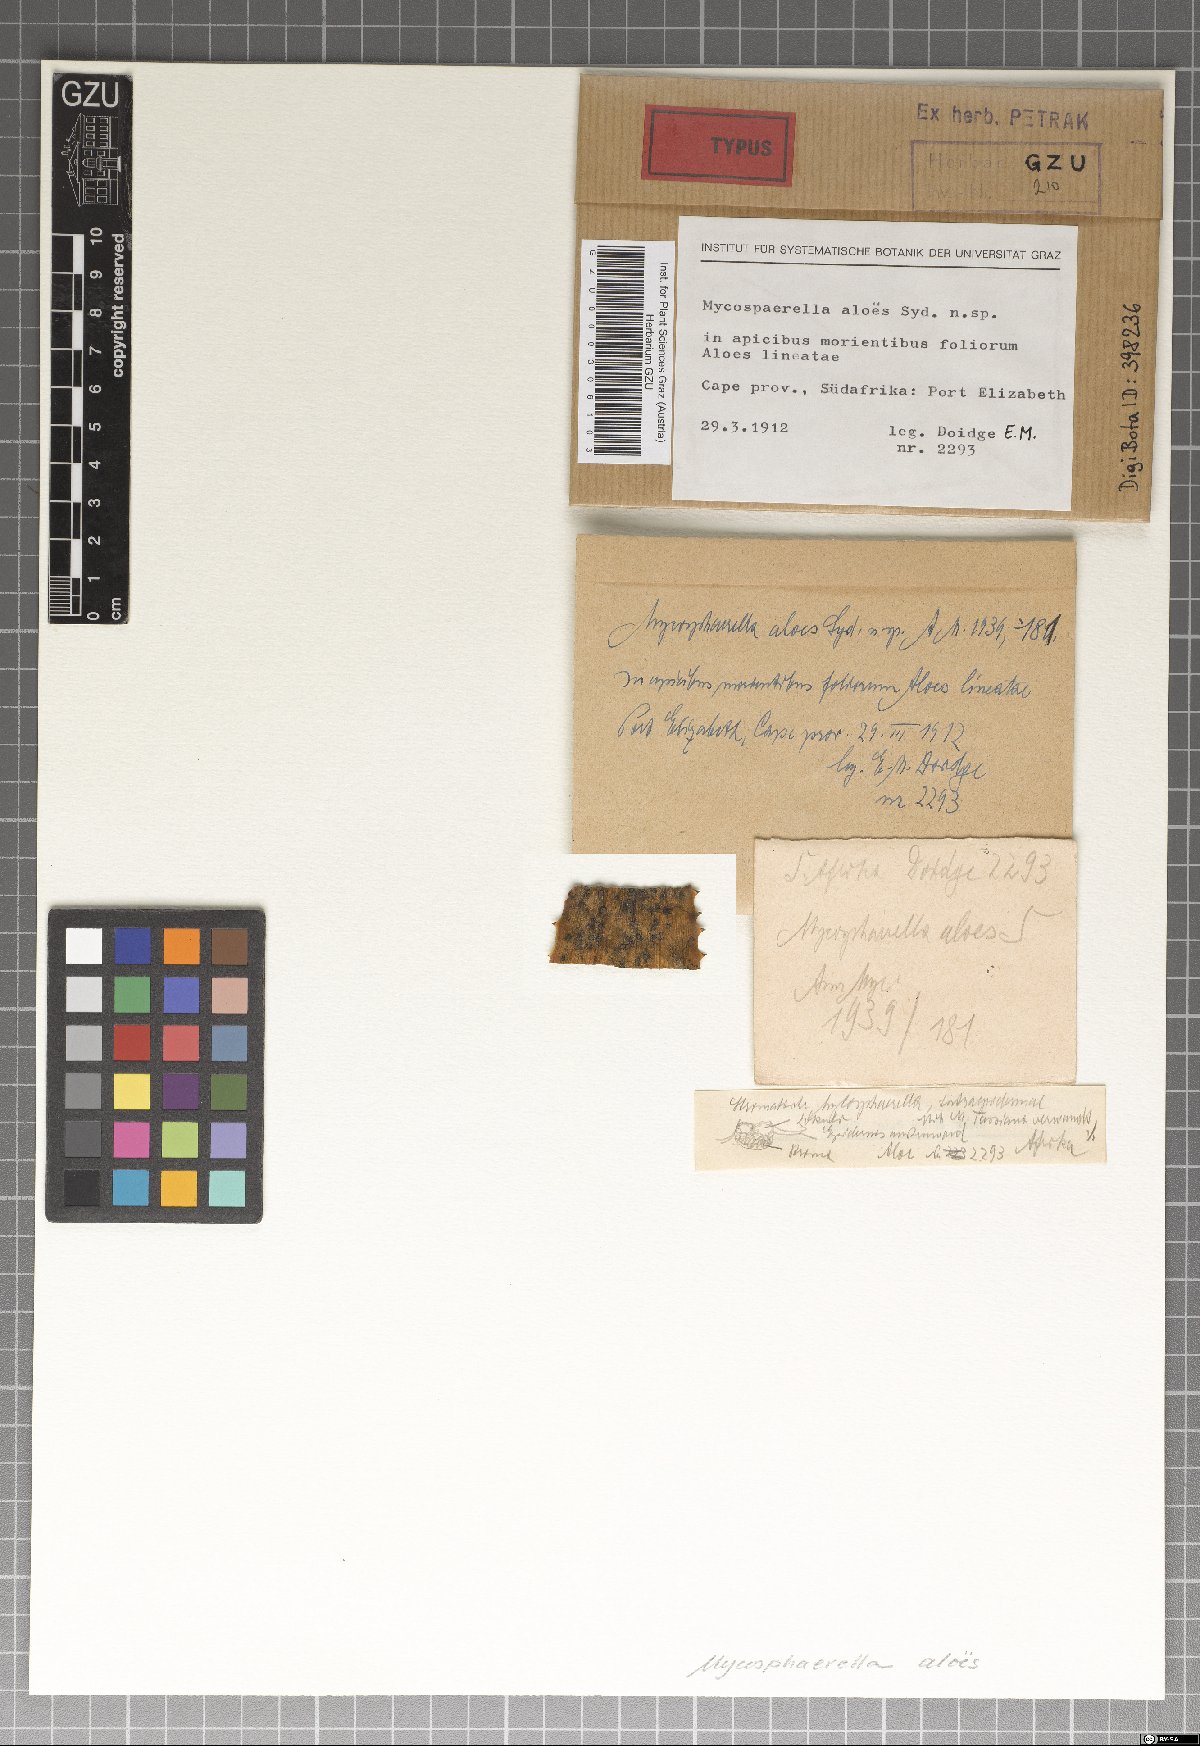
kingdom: Fungi
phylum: Ascomycota
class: Dothideomycetes
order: Mycosphaerellales
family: Mycosphaerellaceae
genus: Mycosphaerella
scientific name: Mycosphaerella aloes
